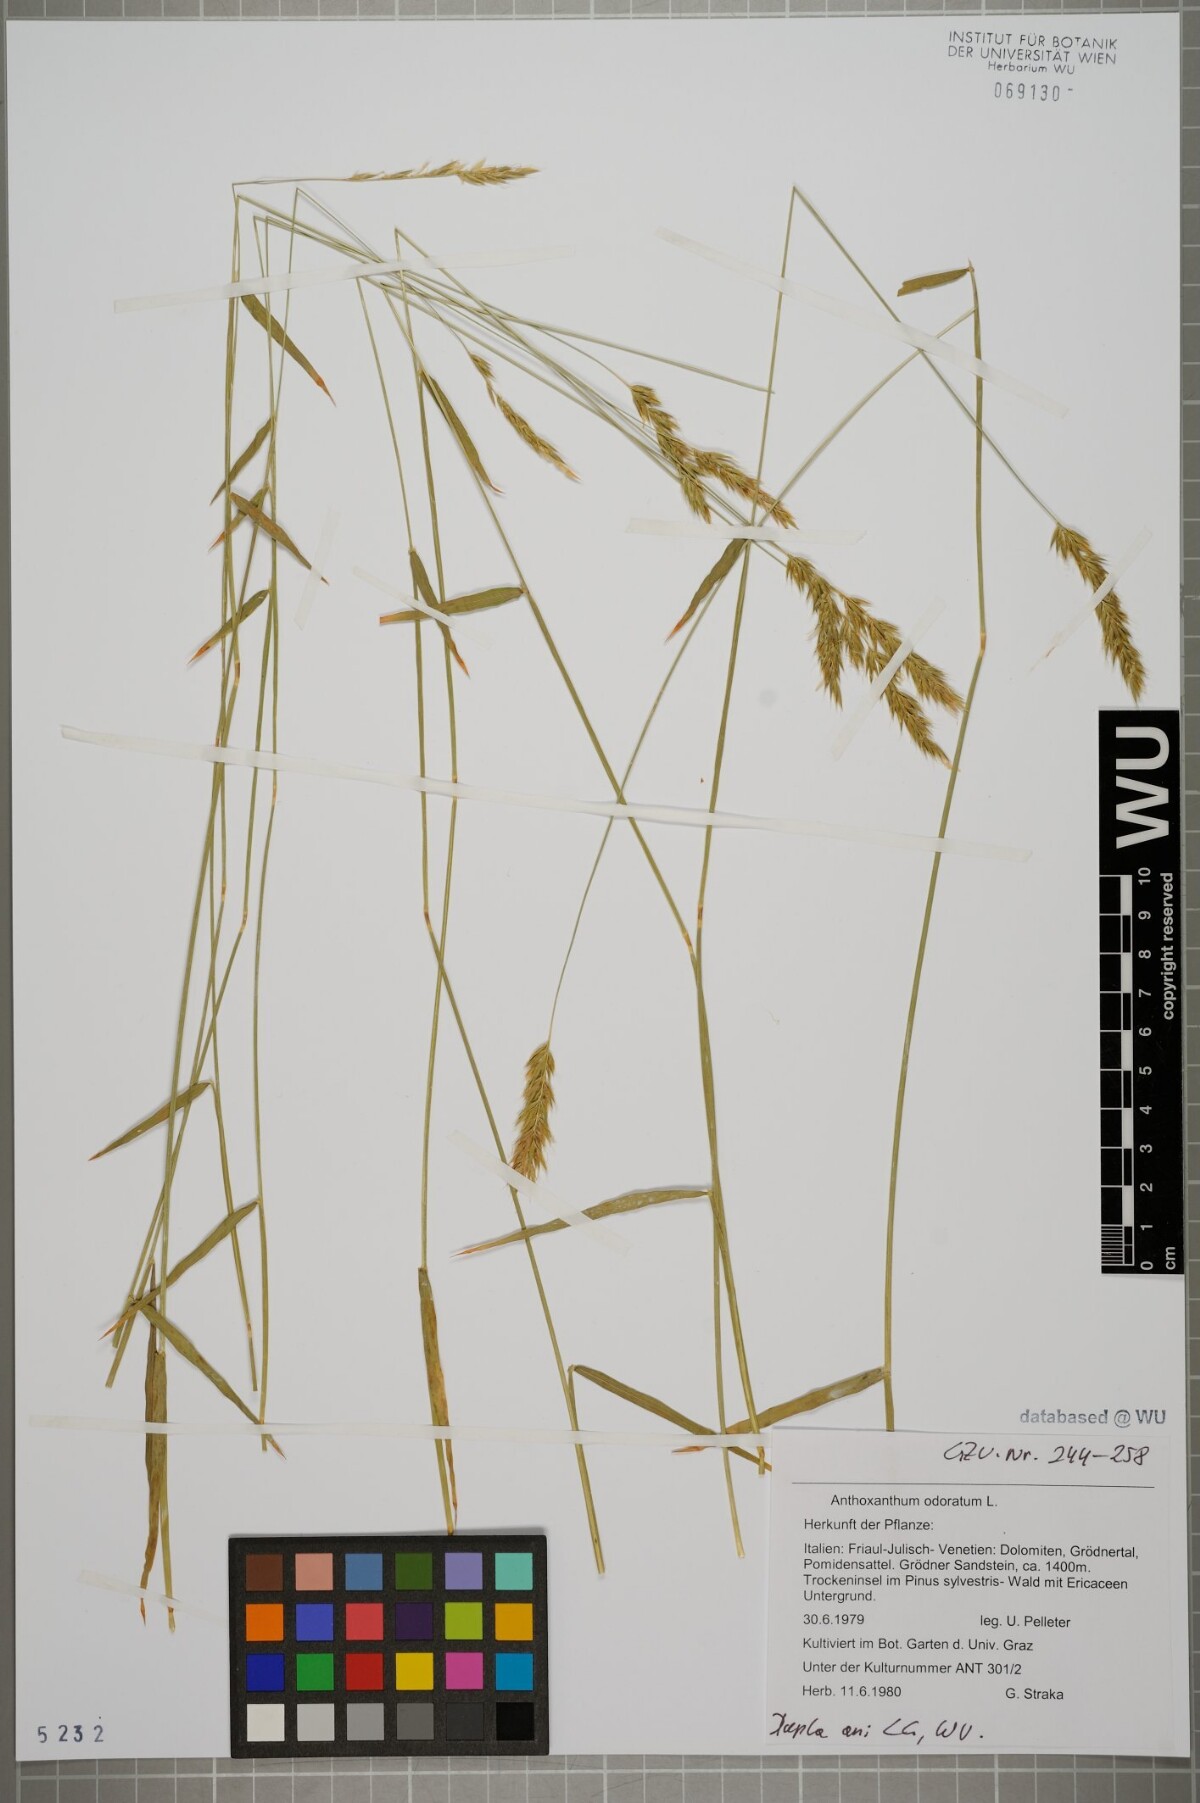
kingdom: Plantae
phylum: Tracheophyta
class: Liliopsida
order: Poales
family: Poaceae
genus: Anthoxanthum
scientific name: Anthoxanthum odoratum
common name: Sweet vernalgrass
